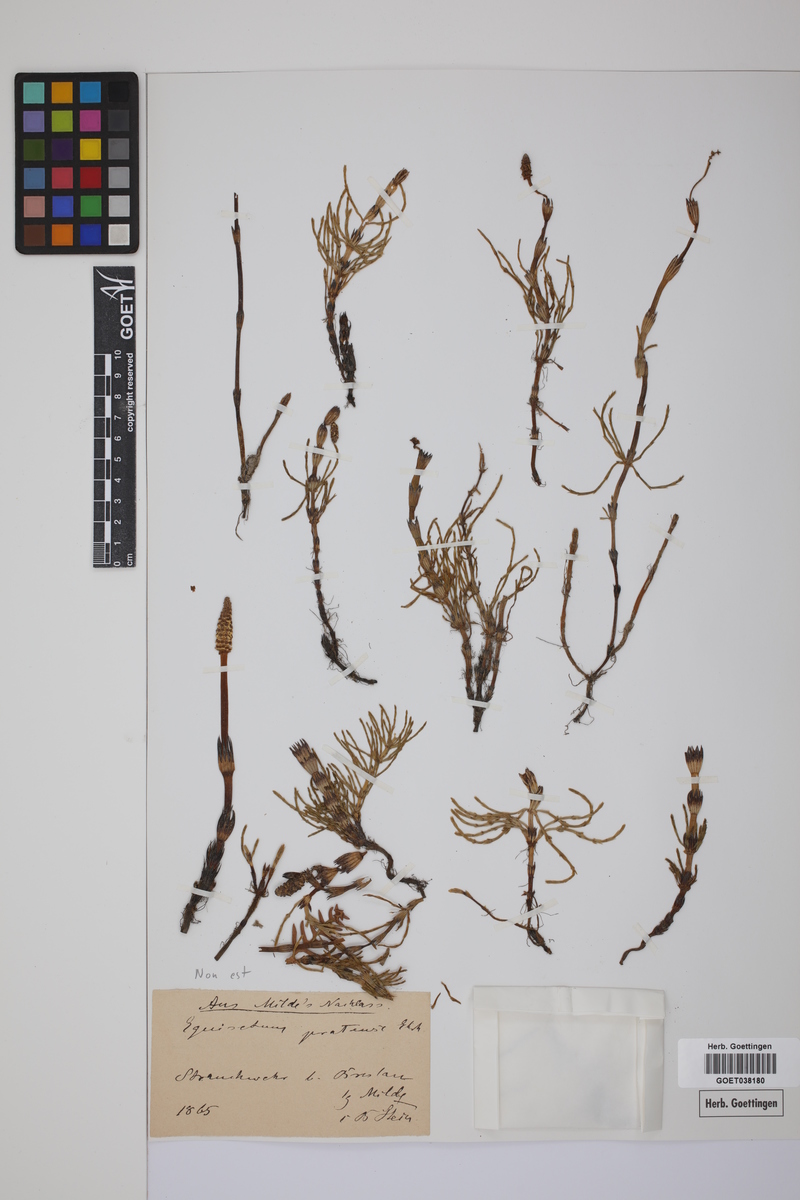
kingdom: Plantae
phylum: Tracheophyta
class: Polypodiopsida
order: Equisetales
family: Equisetaceae
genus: Equisetum
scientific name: Equisetum arvense
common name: Field horsetail
